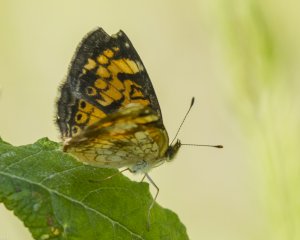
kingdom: Animalia
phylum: Arthropoda
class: Insecta
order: Lepidoptera
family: Nymphalidae
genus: Phyciodes
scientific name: Phyciodes tharos
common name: Northern Crescent
